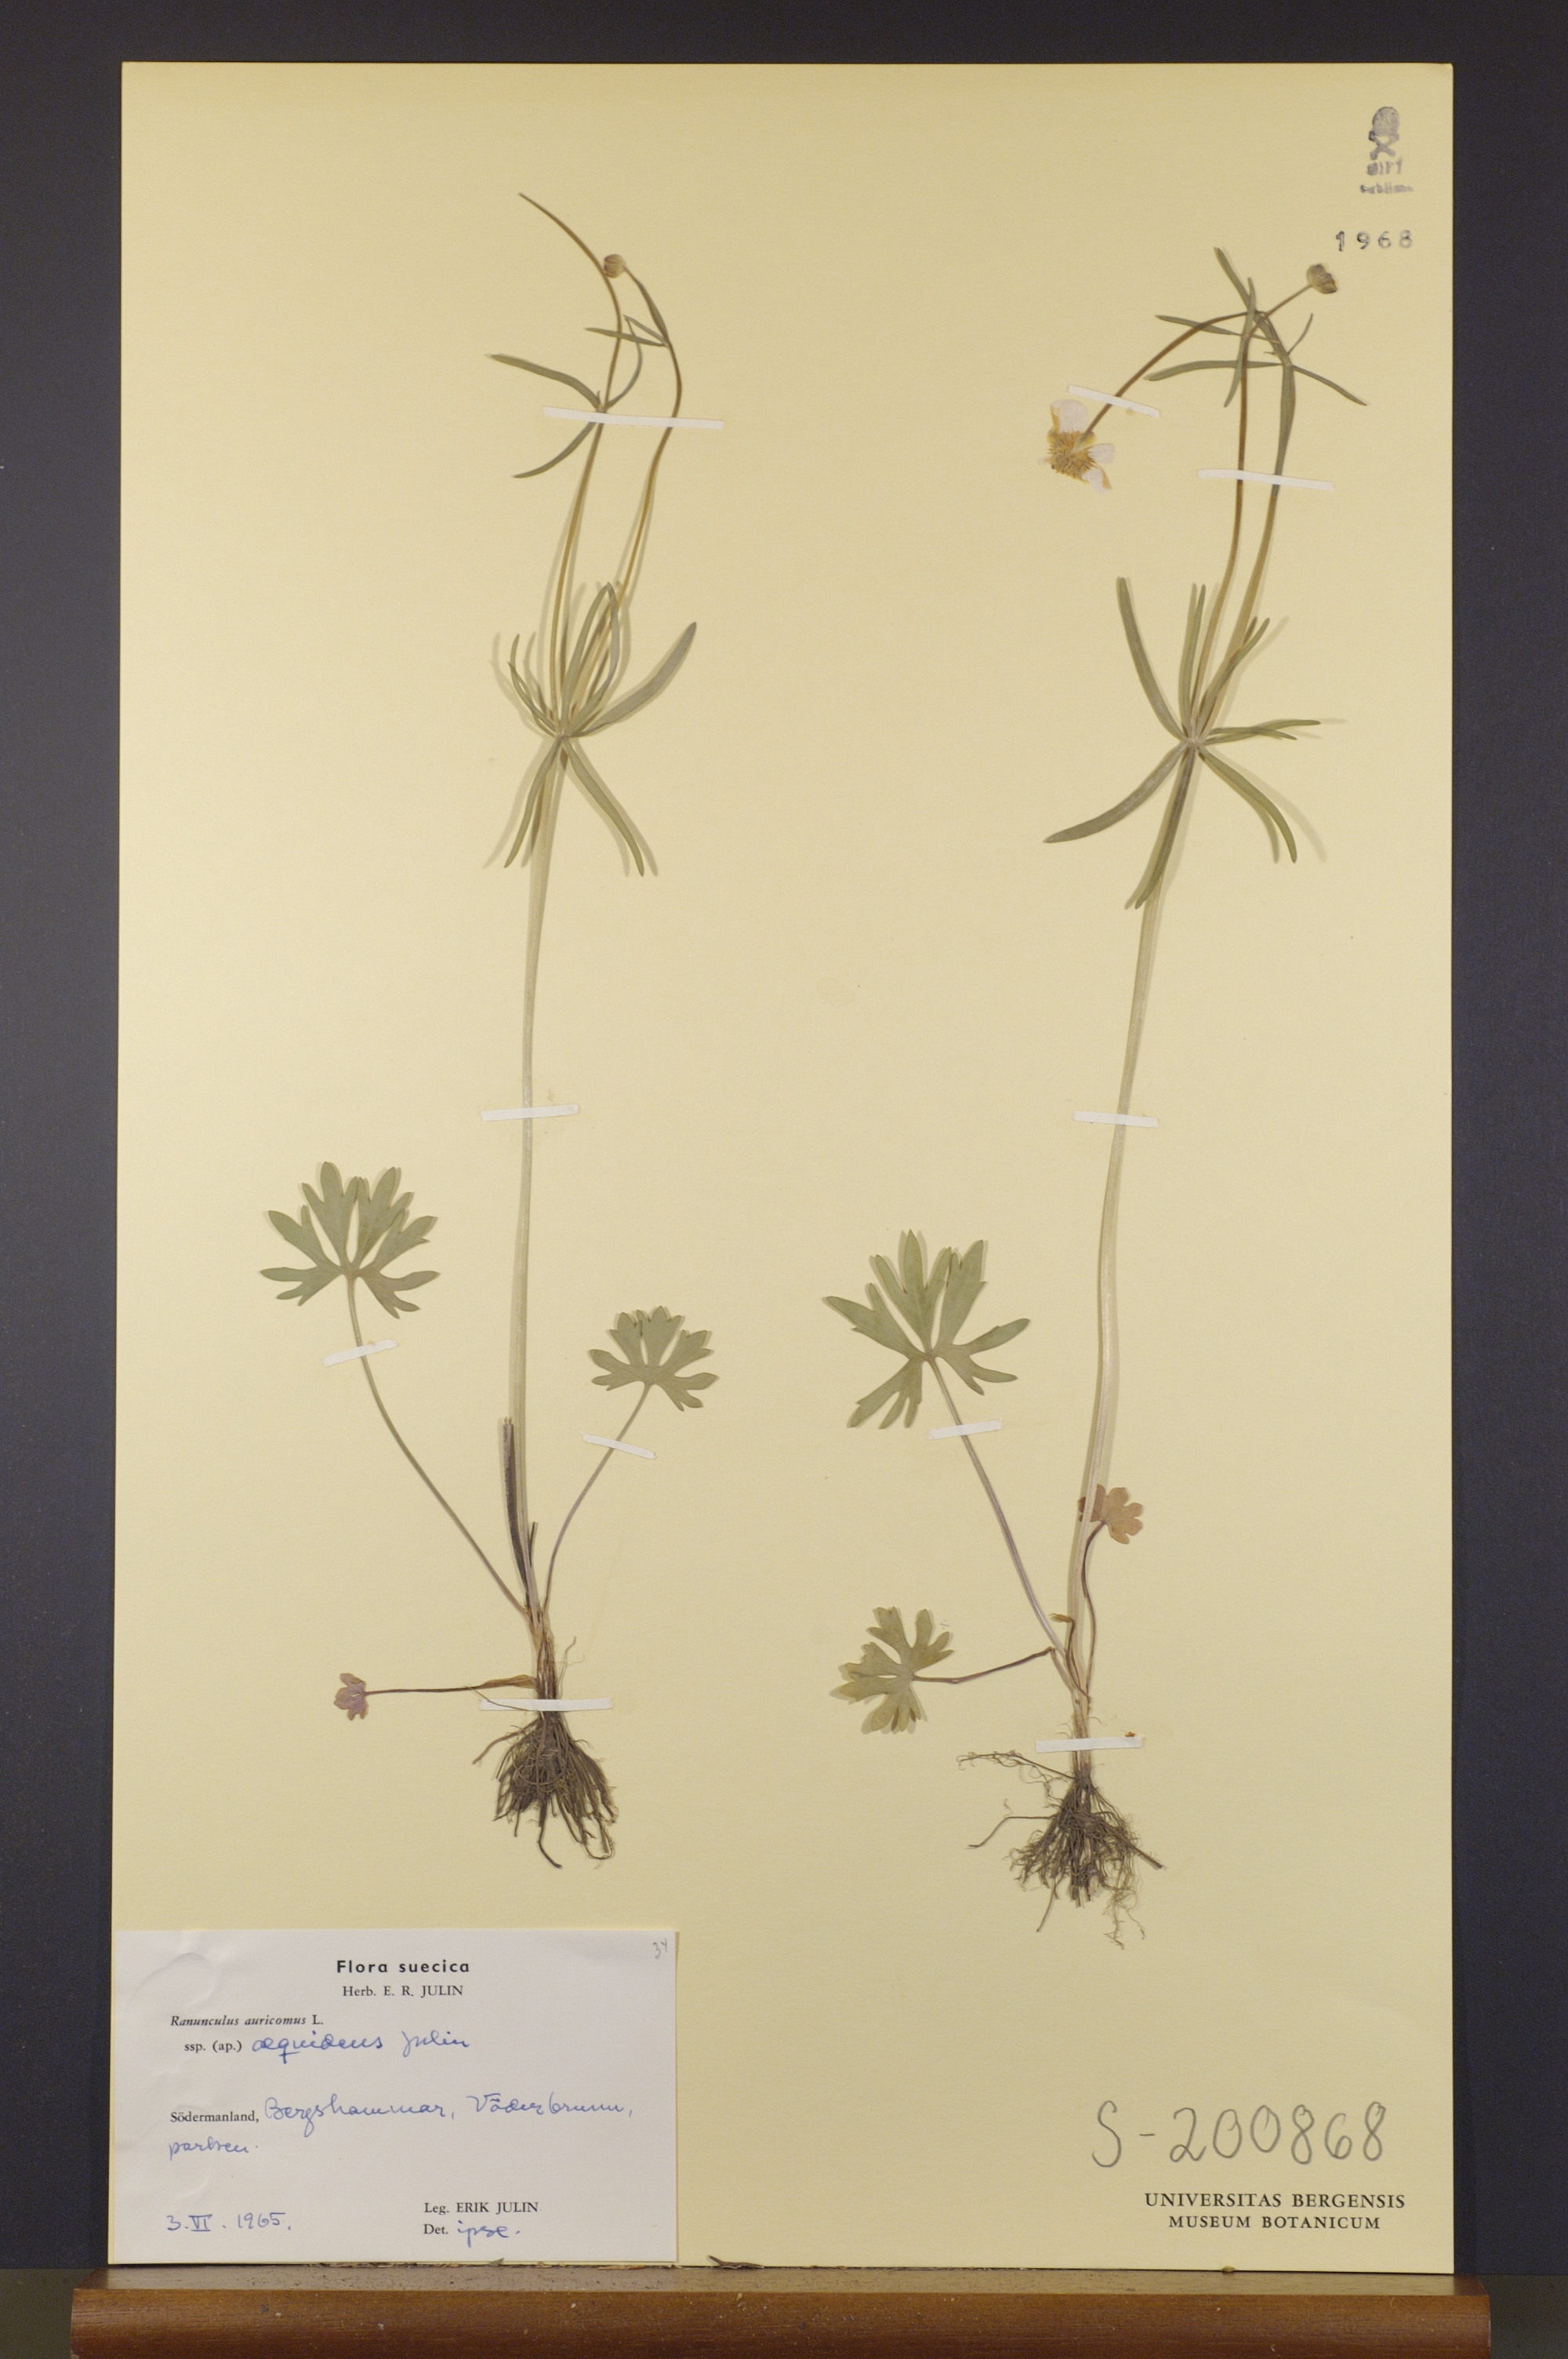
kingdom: Plantae
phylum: Tracheophyta
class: Magnoliopsida
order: Ranunculales
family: Ranunculaceae
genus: Ranunculus
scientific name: Ranunculus aequidens
